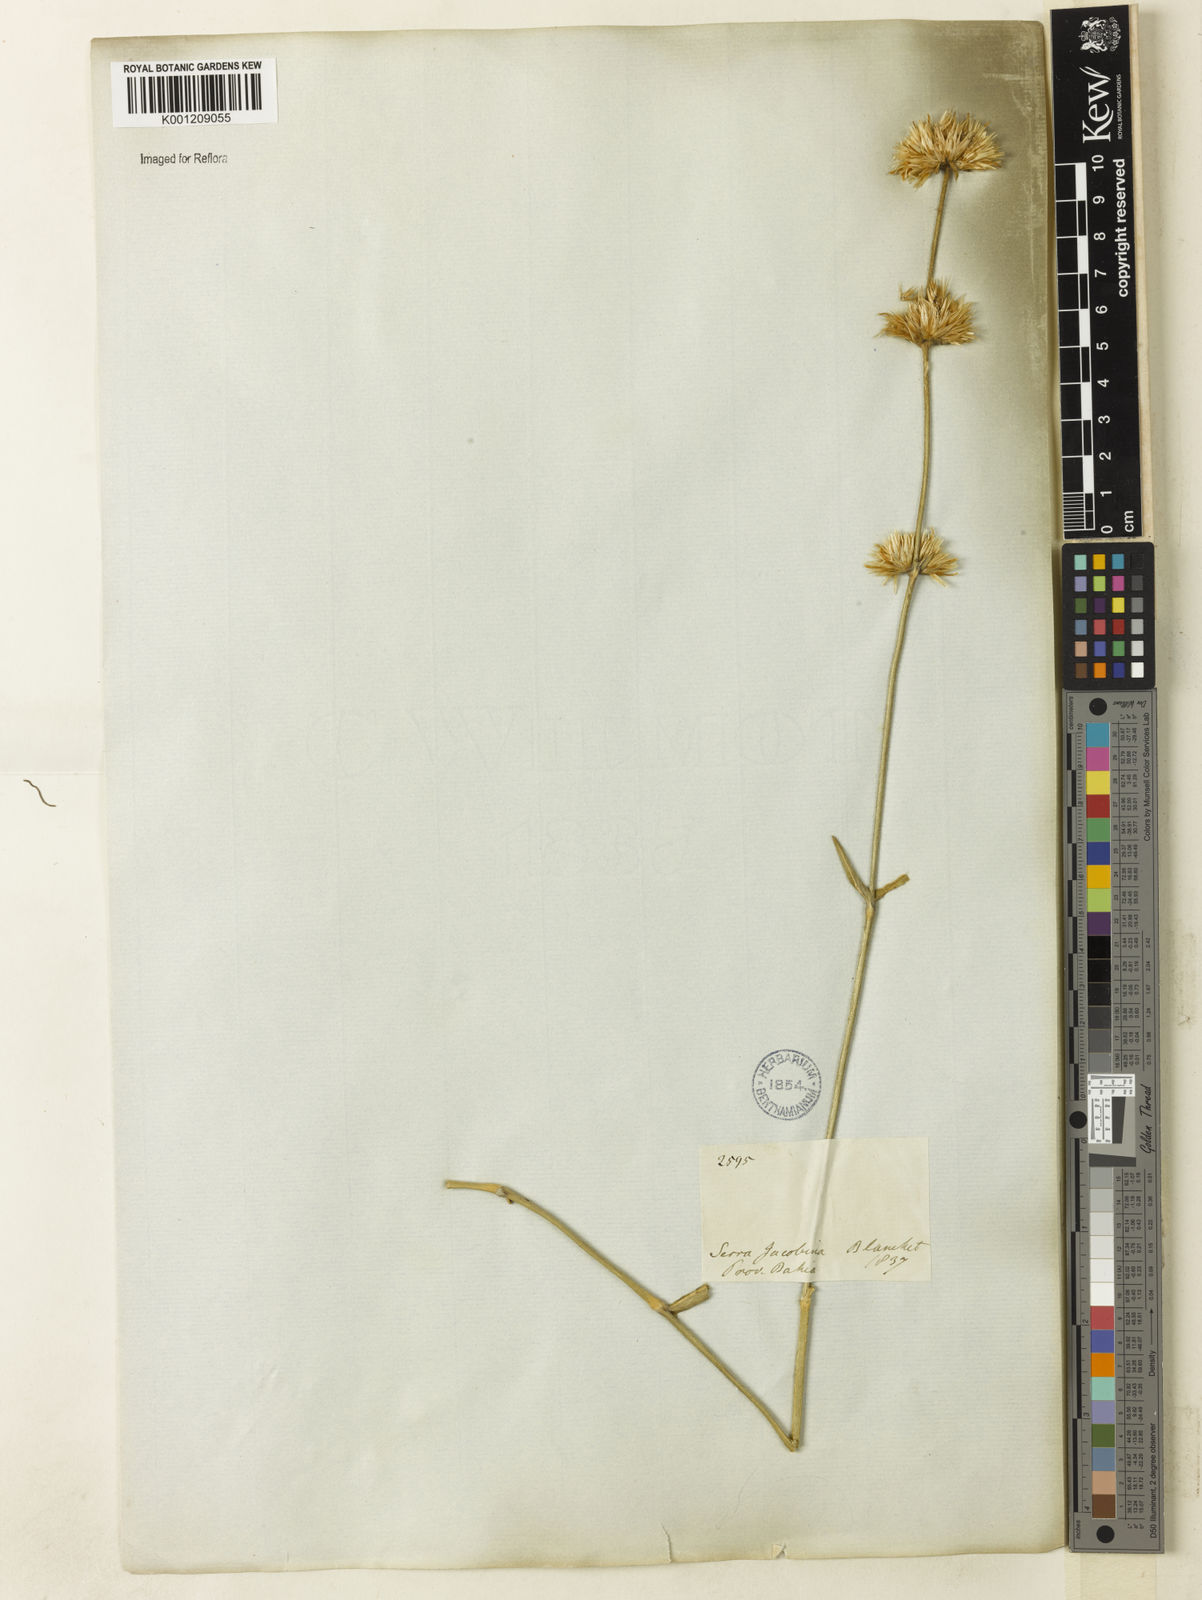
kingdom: Plantae
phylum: Tracheophyta
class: Magnoliopsida
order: Caryophyllales
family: Amaranthaceae
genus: Gomphrena
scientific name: Gomphrena agrestis
